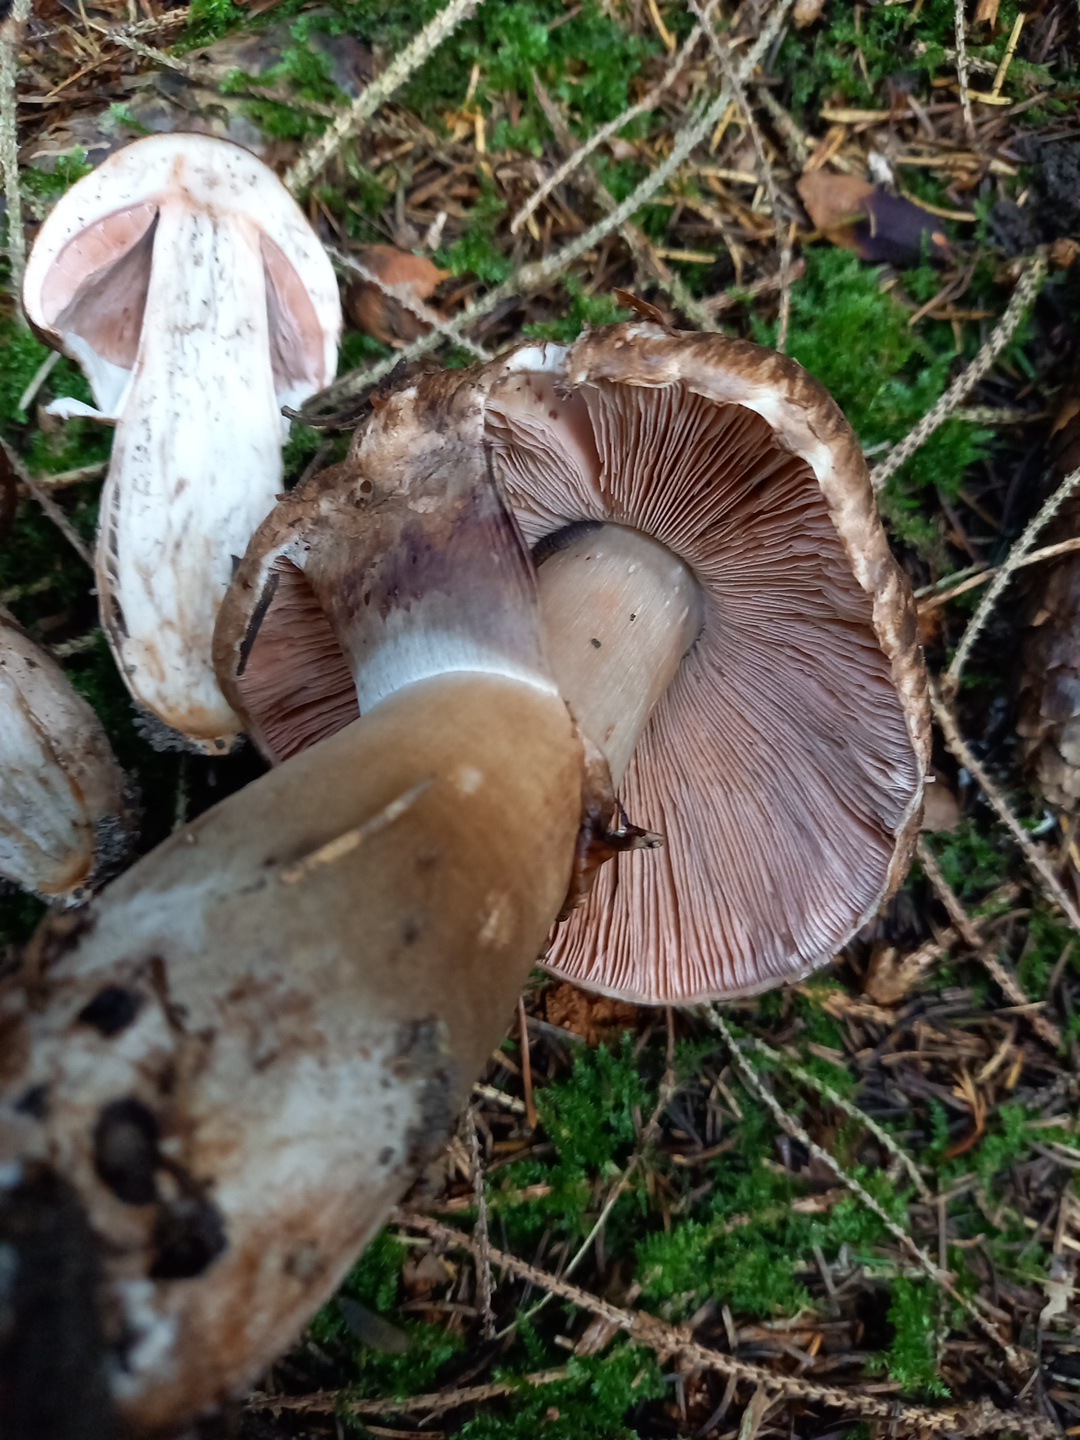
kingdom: Fungi
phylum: Basidiomycota
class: Agaricomycetes
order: Agaricales
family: Agaricaceae
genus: Agaricus
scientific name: Agaricus
